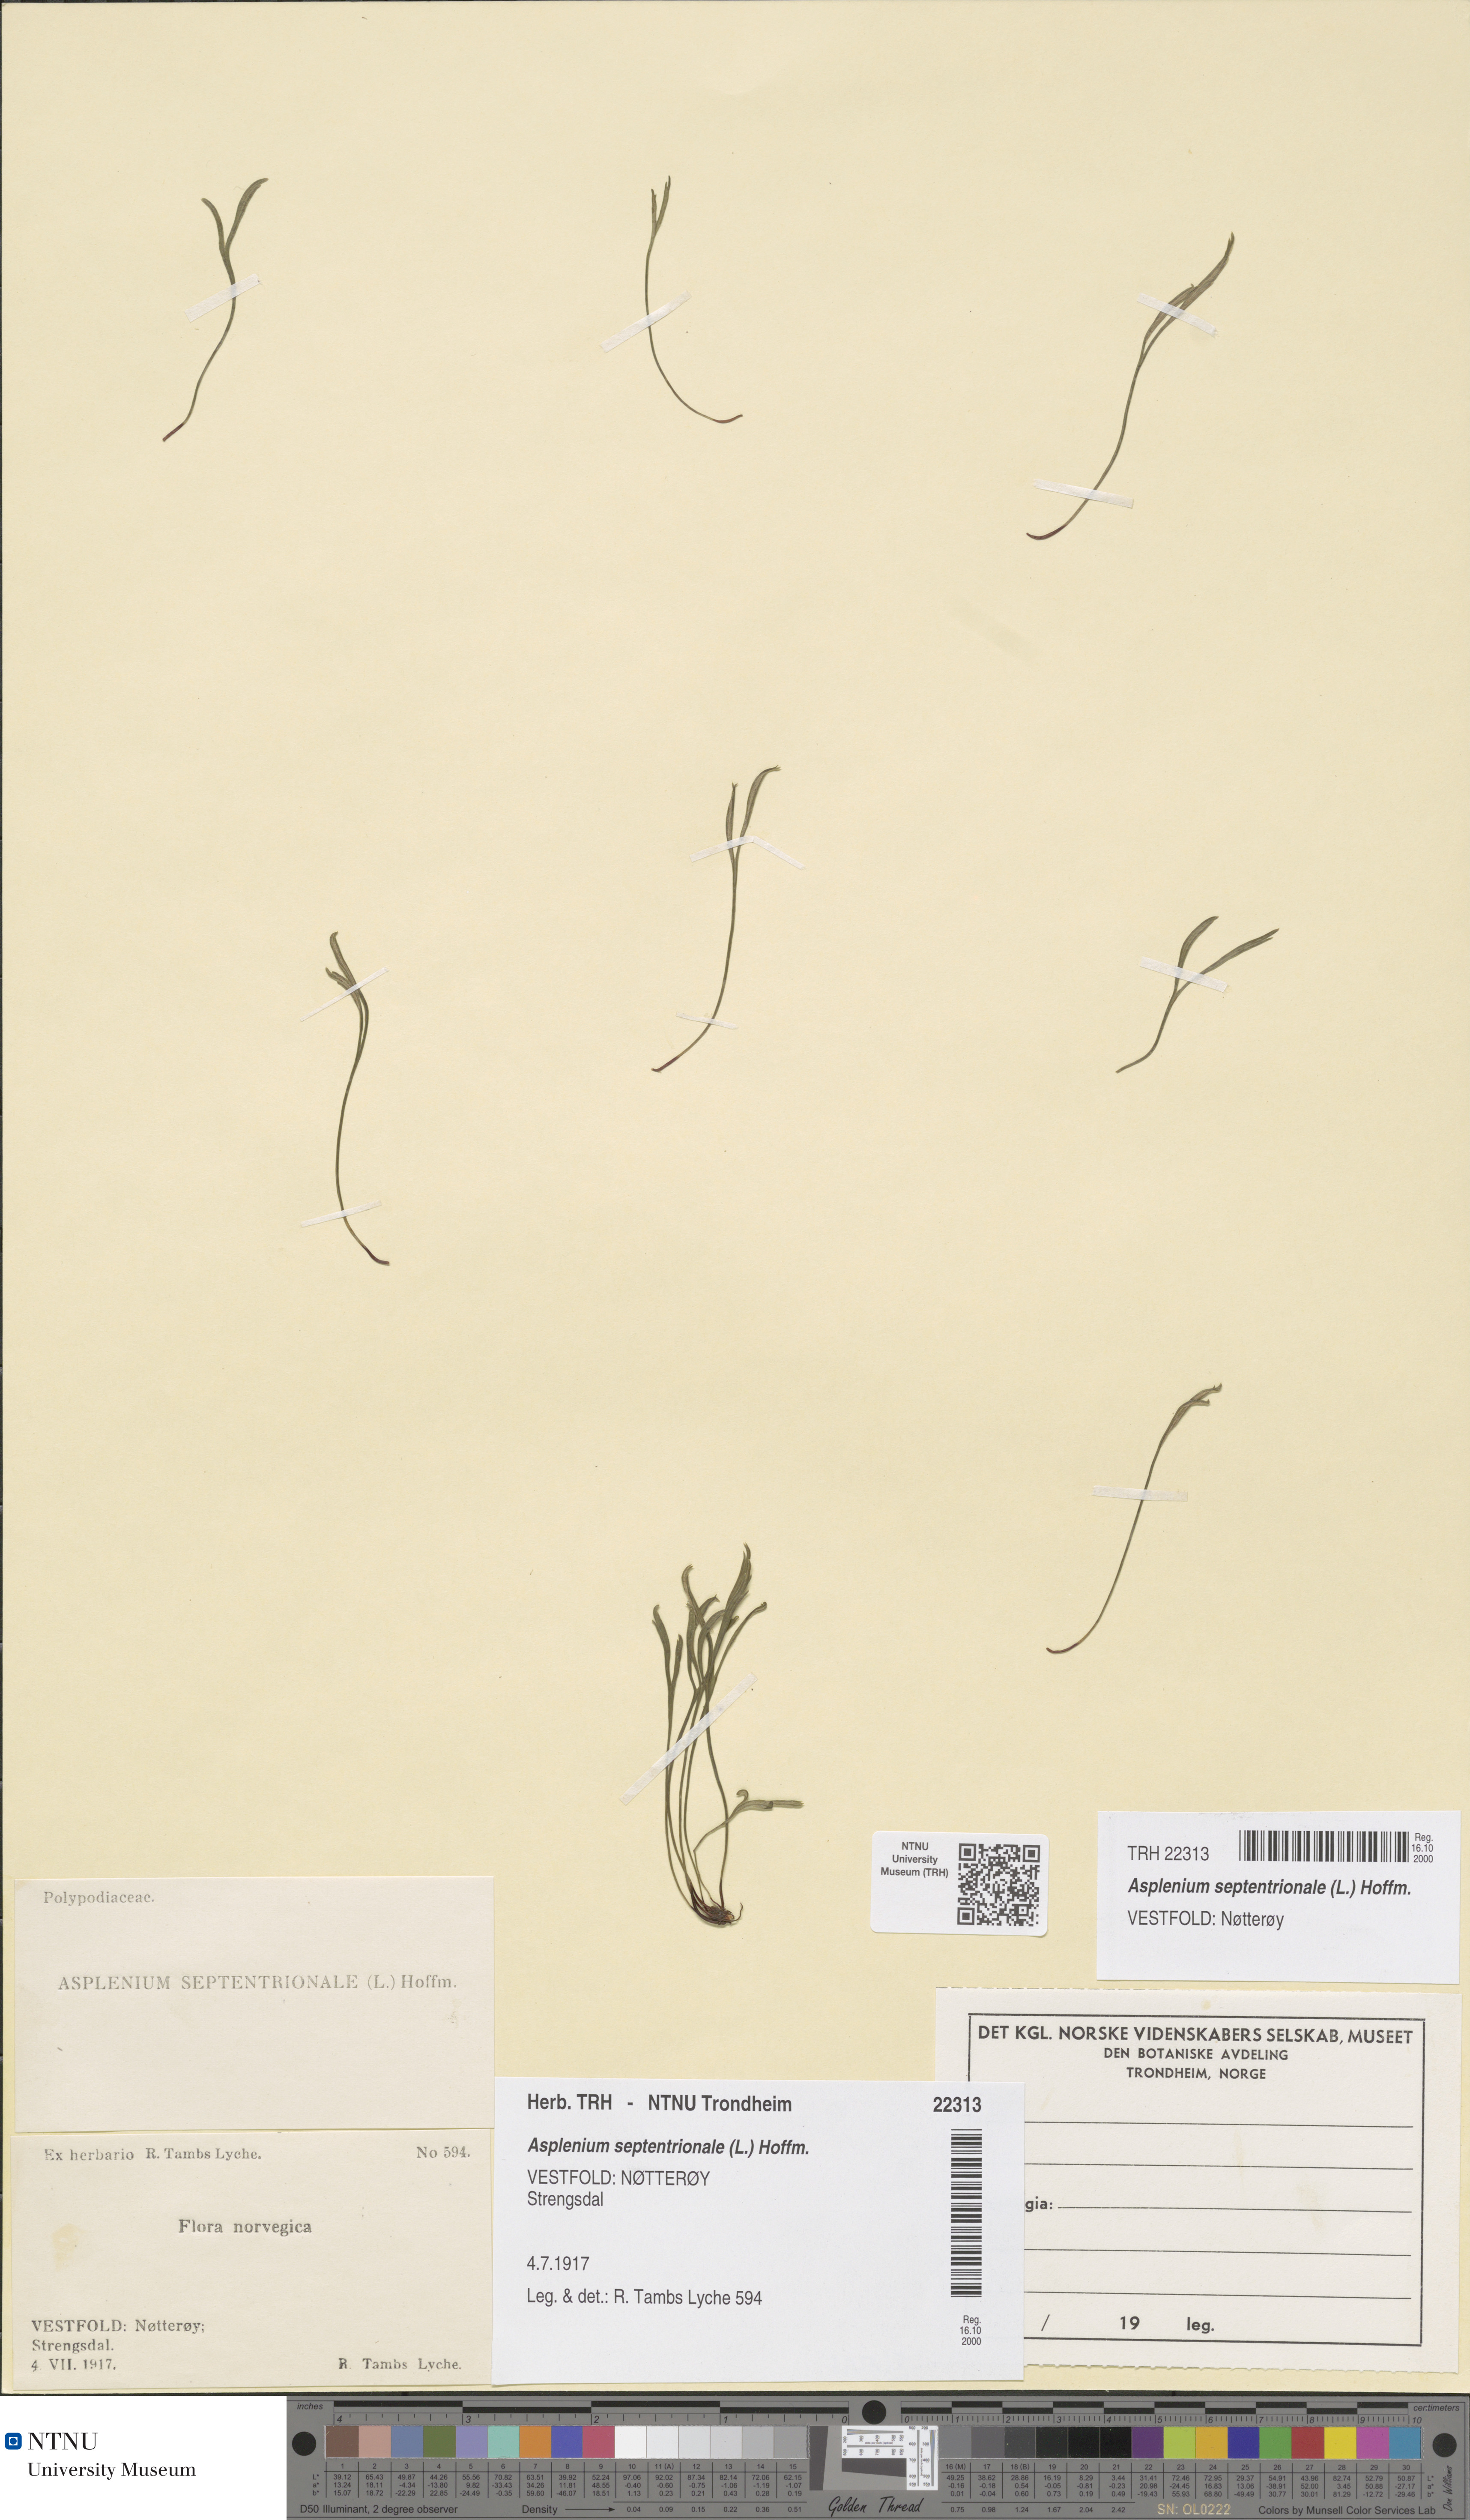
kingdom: Plantae
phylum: Tracheophyta
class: Polypodiopsida
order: Polypodiales
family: Aspleniaceae
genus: Asplenium
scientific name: Asplenium septentrionale
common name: Forked spleenwort
